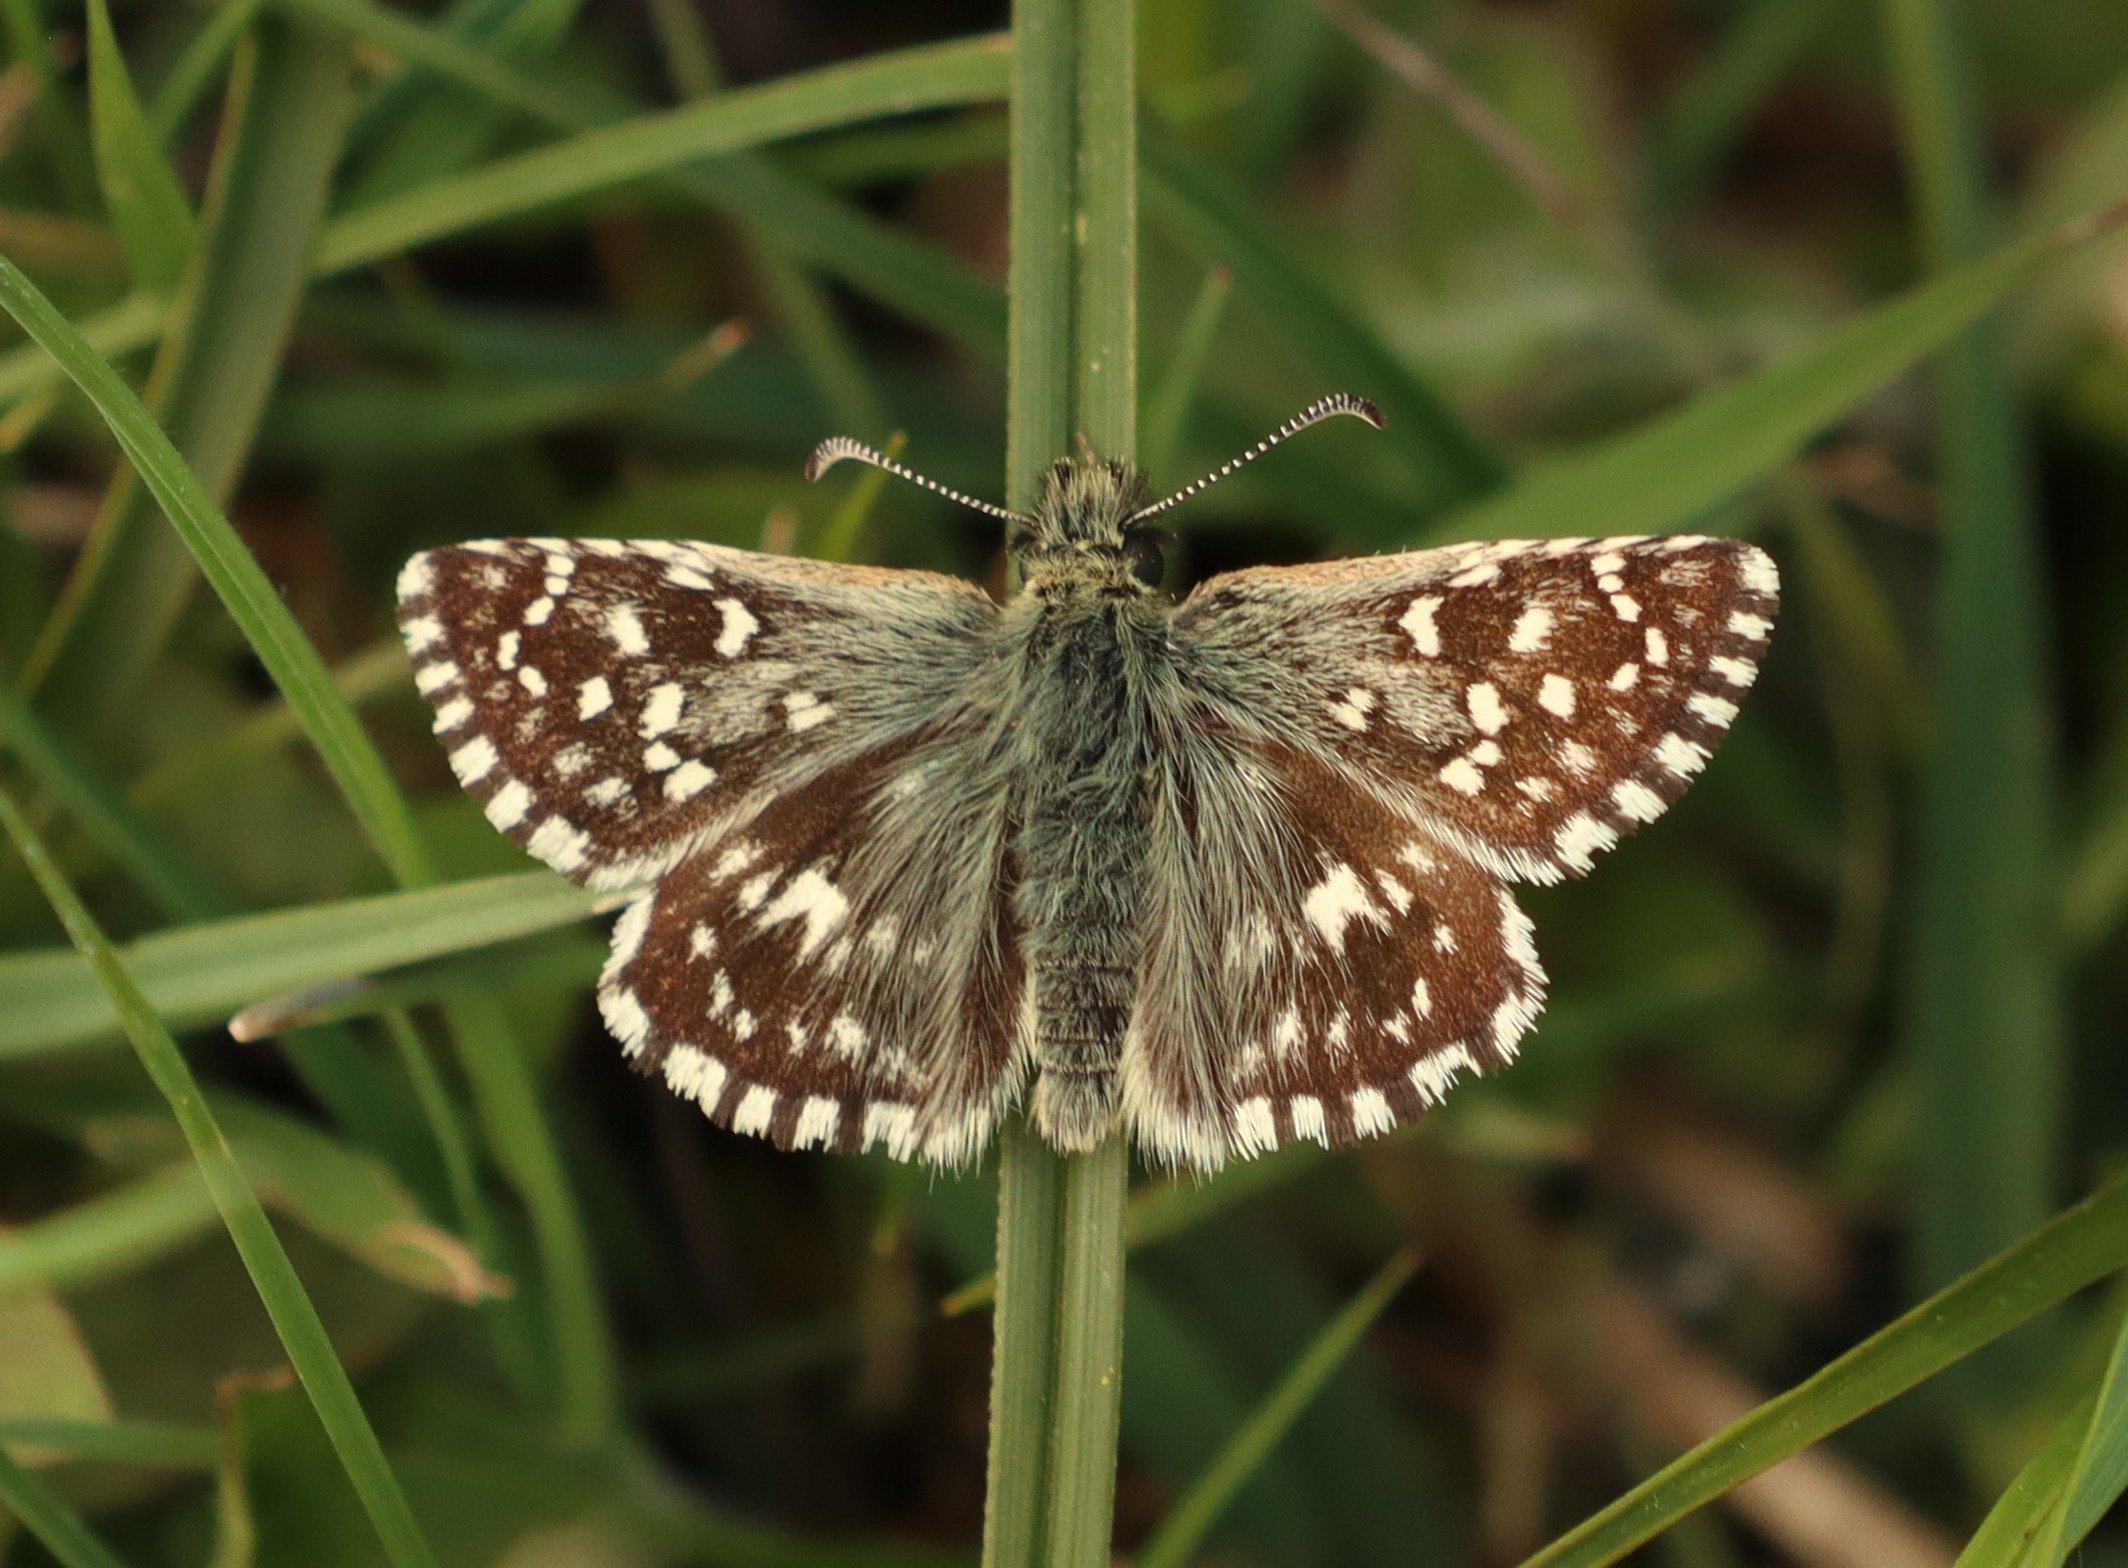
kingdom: Animalia
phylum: Arthropoda
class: Insecta
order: Lepidoptera
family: Hesperiidae
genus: Pyrgus
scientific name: Pyrgus malvae
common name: Spættet bredpande
